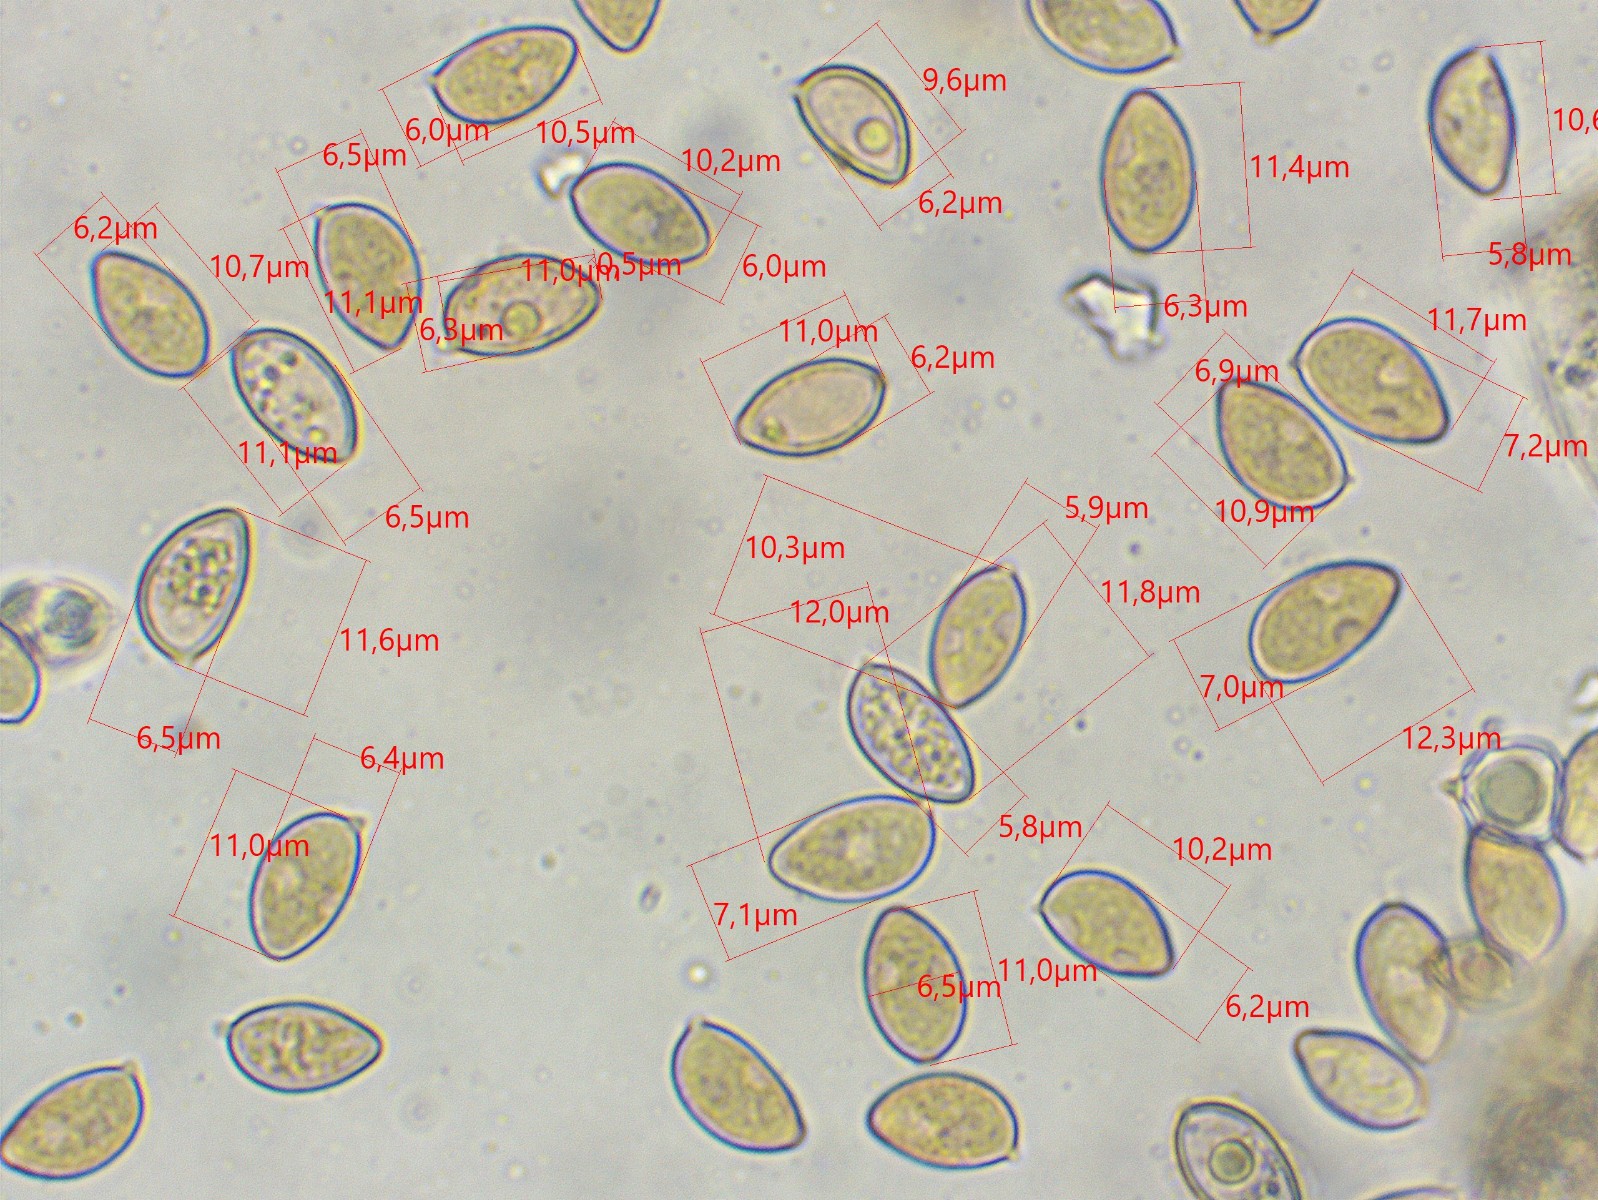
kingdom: Fungi
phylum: Basidiomycota
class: Agaricomycetes
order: Agaricales
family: Hymenogastraceae
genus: Hebeloma
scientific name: Hebeloma nigellum
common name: sortbrun tåreblad
